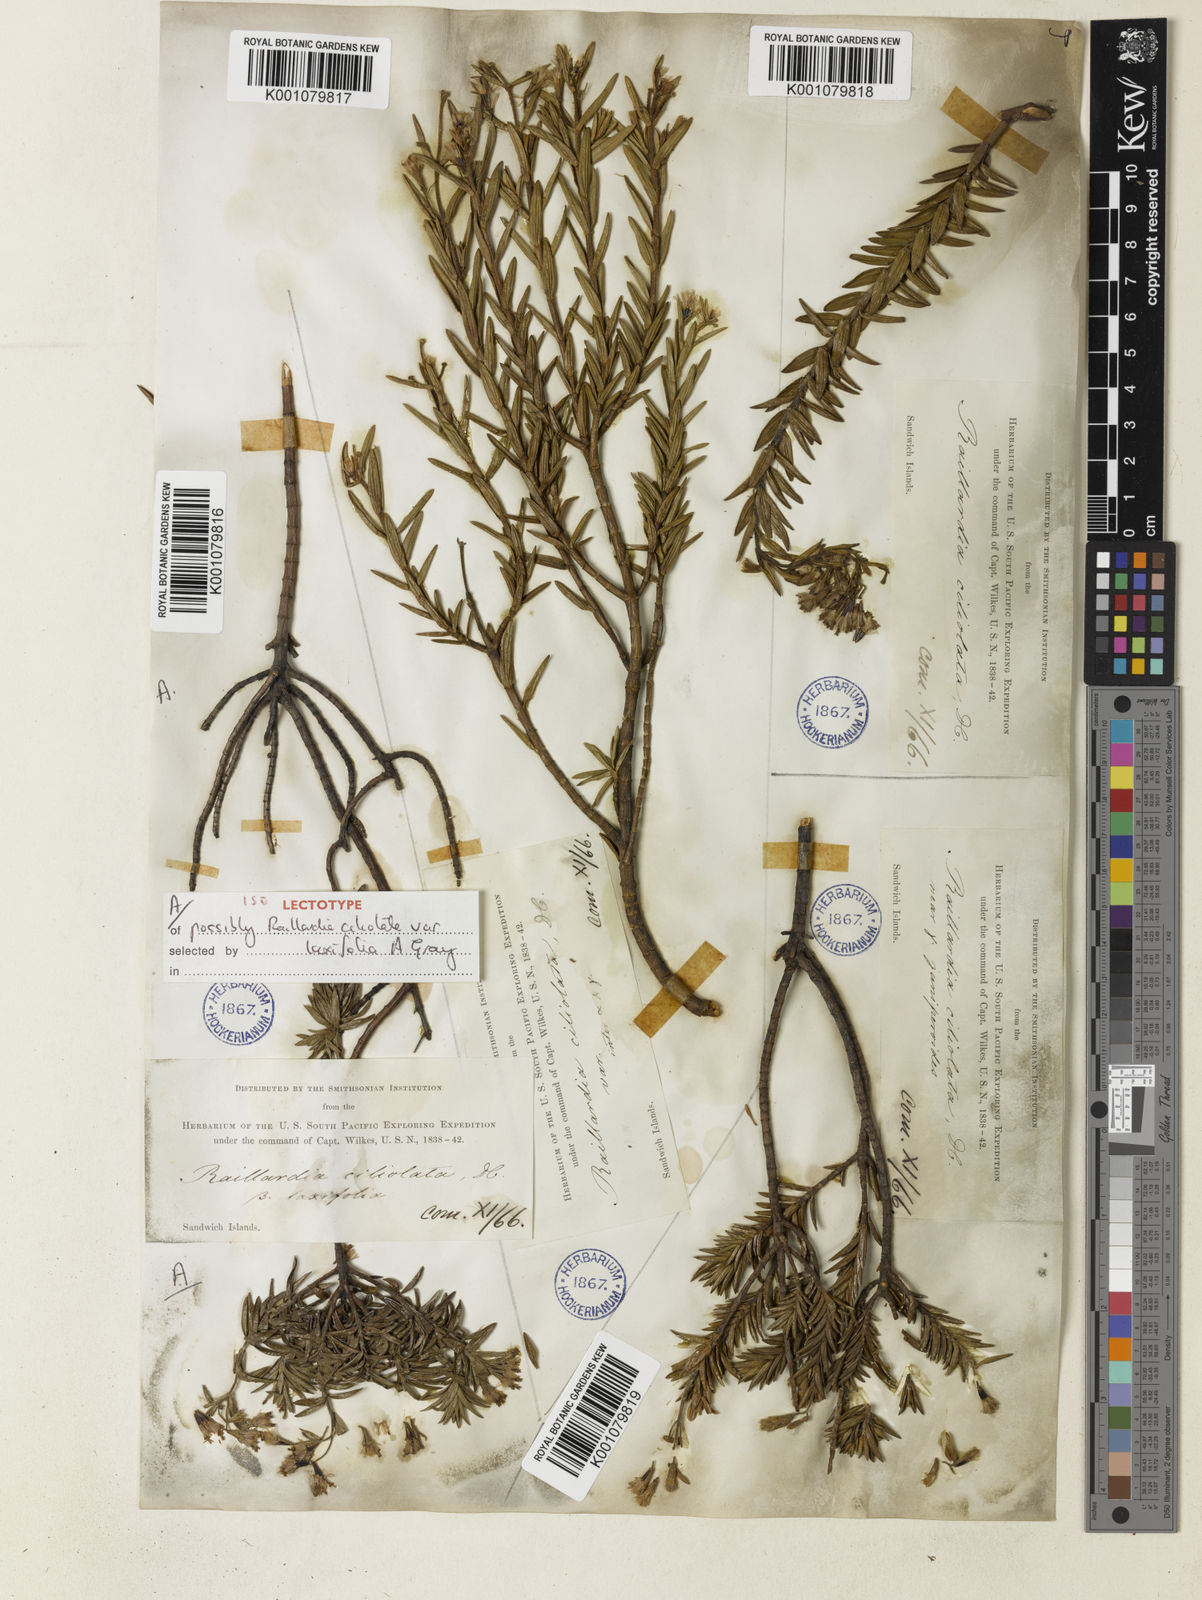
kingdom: Plantae
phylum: Tracheophyta
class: Magnoliopsida
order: Asterales
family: Asteraceae
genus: Dubautia
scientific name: Dubautia ciliolata
